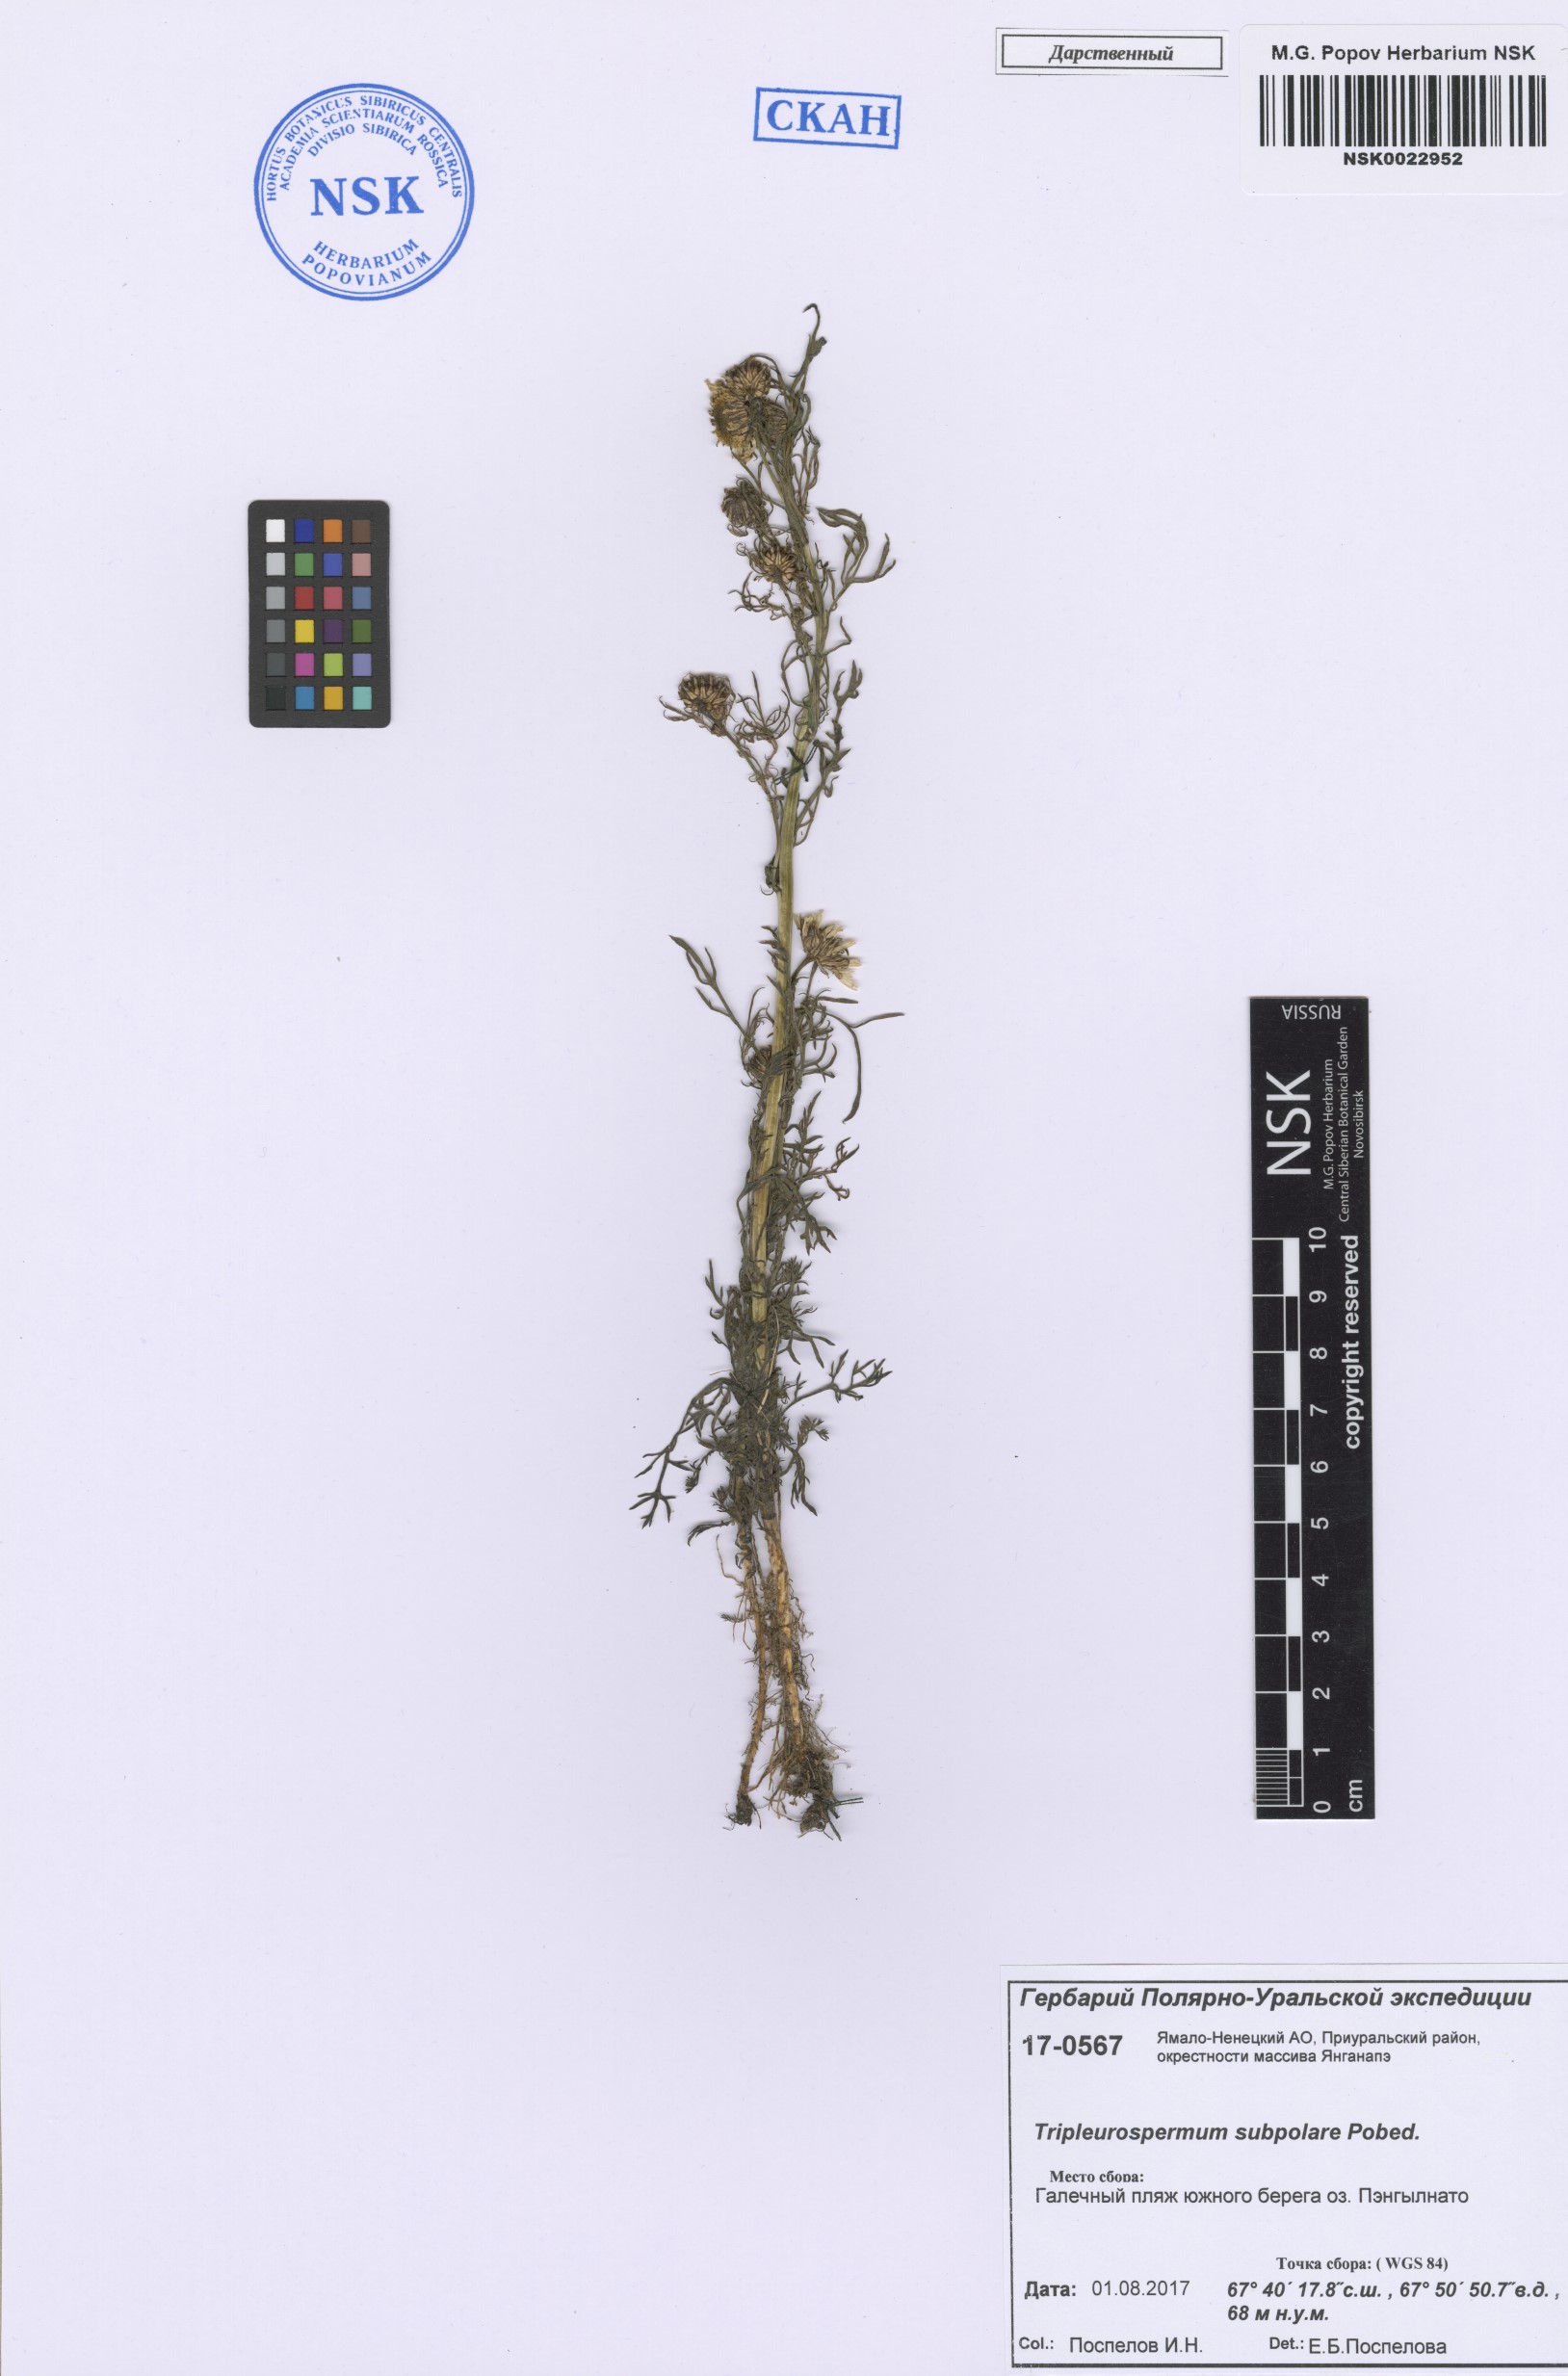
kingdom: Plantae
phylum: Tracheophyta
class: Magnoliopsida
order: Asterales
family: Asteraceae
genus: Tripleurospermum
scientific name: Tripleurospermum subpolare
